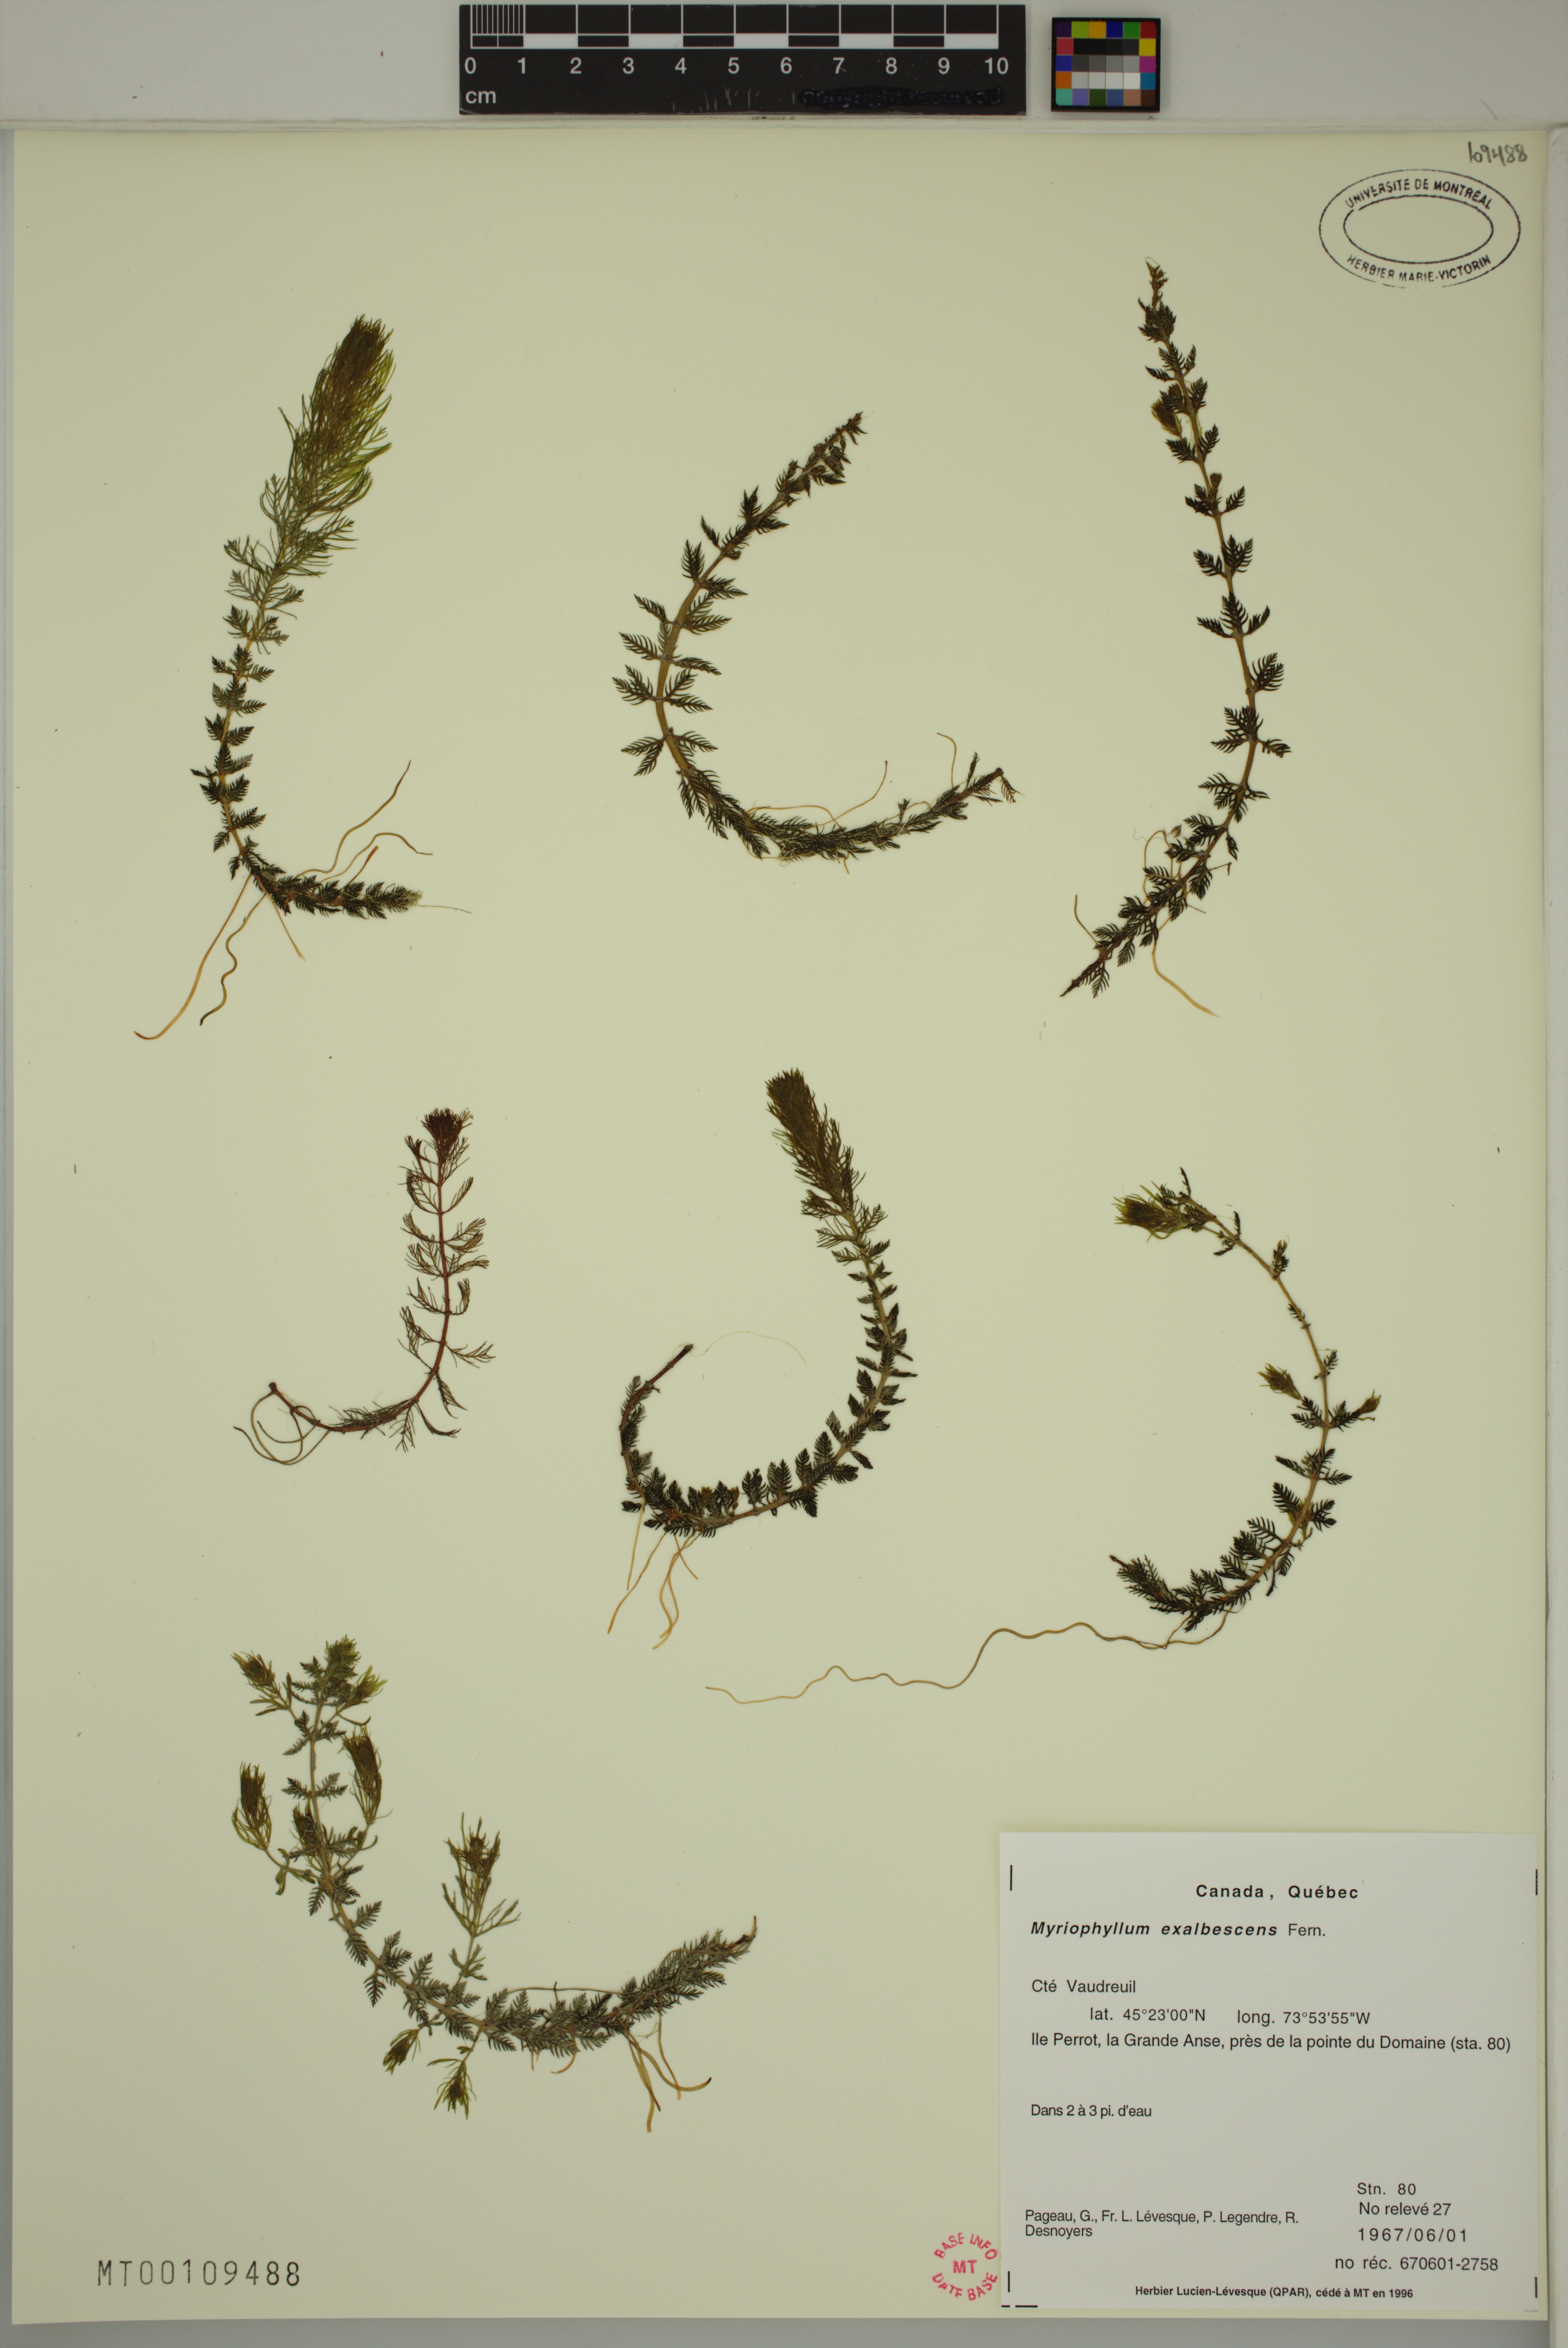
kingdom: Plantae
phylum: Tracheophyta
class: Magnoliopsida
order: Saxifragales
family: Haloragaceae
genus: Myriophyllum
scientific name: Myriophyllum sibiricum
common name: Siberian water-milfoil
